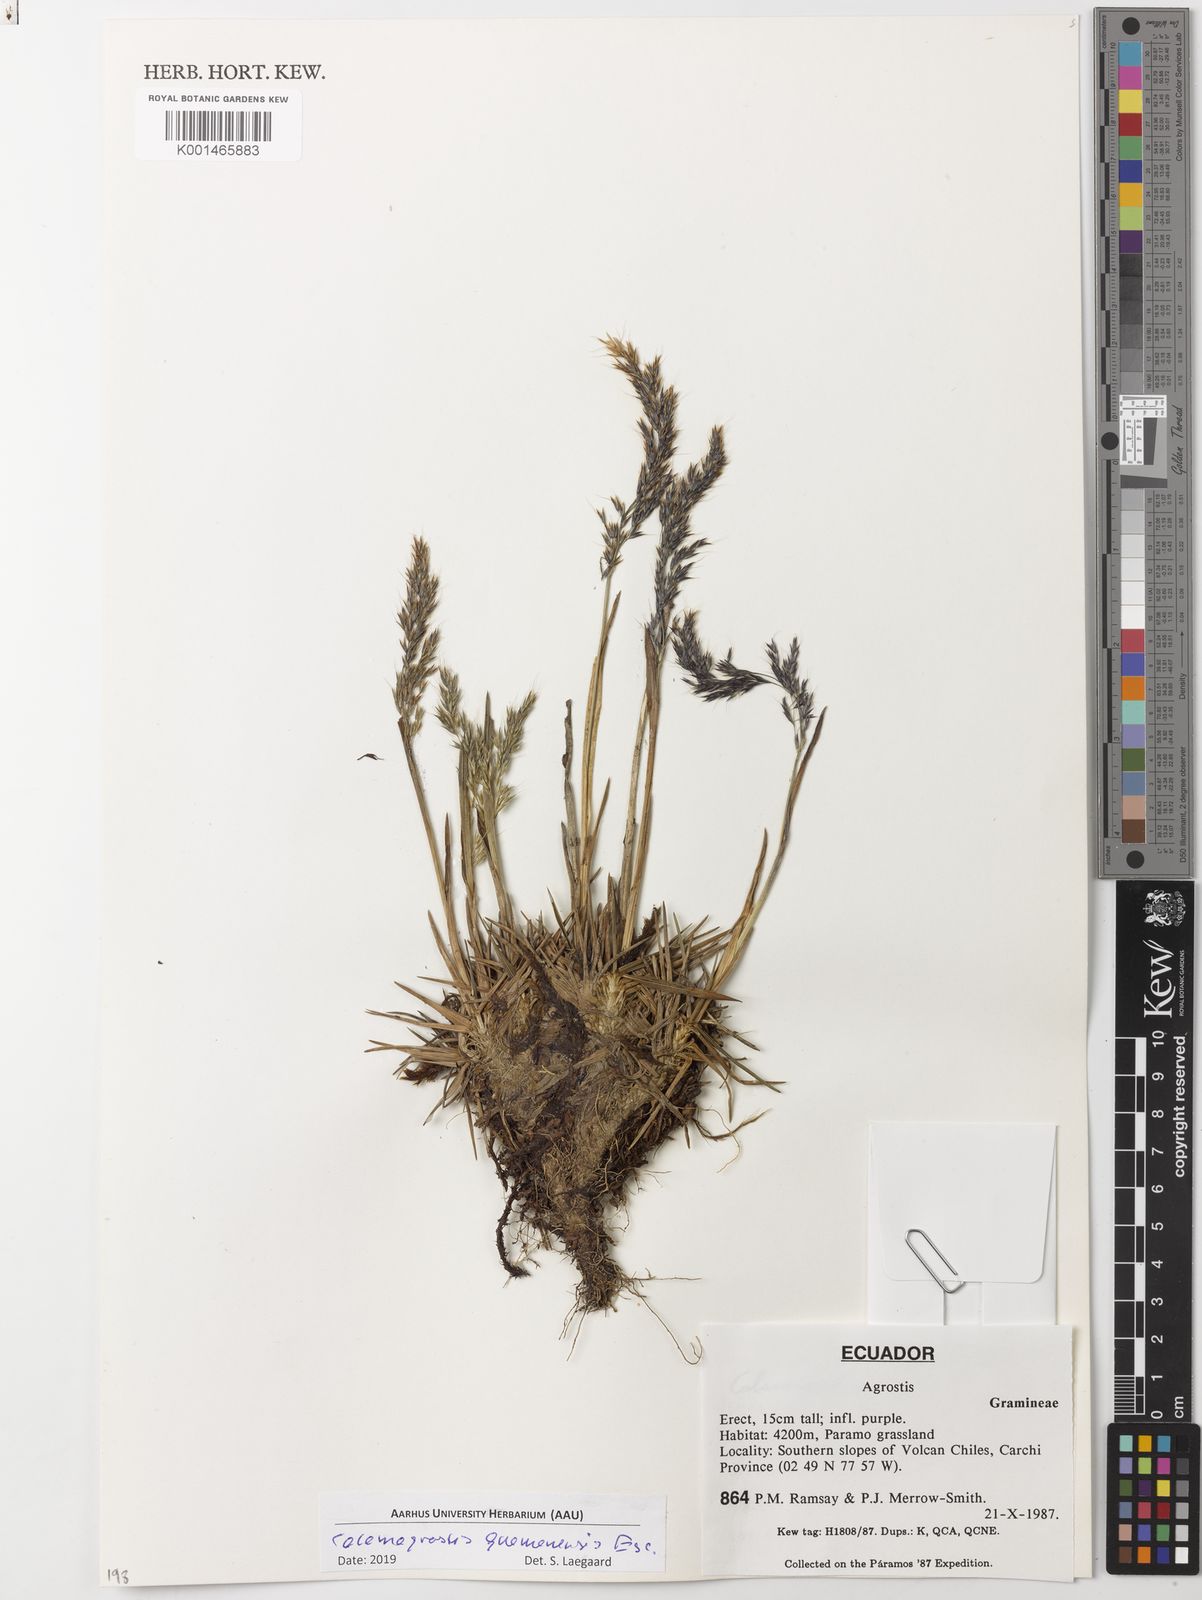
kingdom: Plantae
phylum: Tracheophyta
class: Liliopsida
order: Poales
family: Poaceae
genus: Calamagrostis
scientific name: Calamagrostis guamanensis
